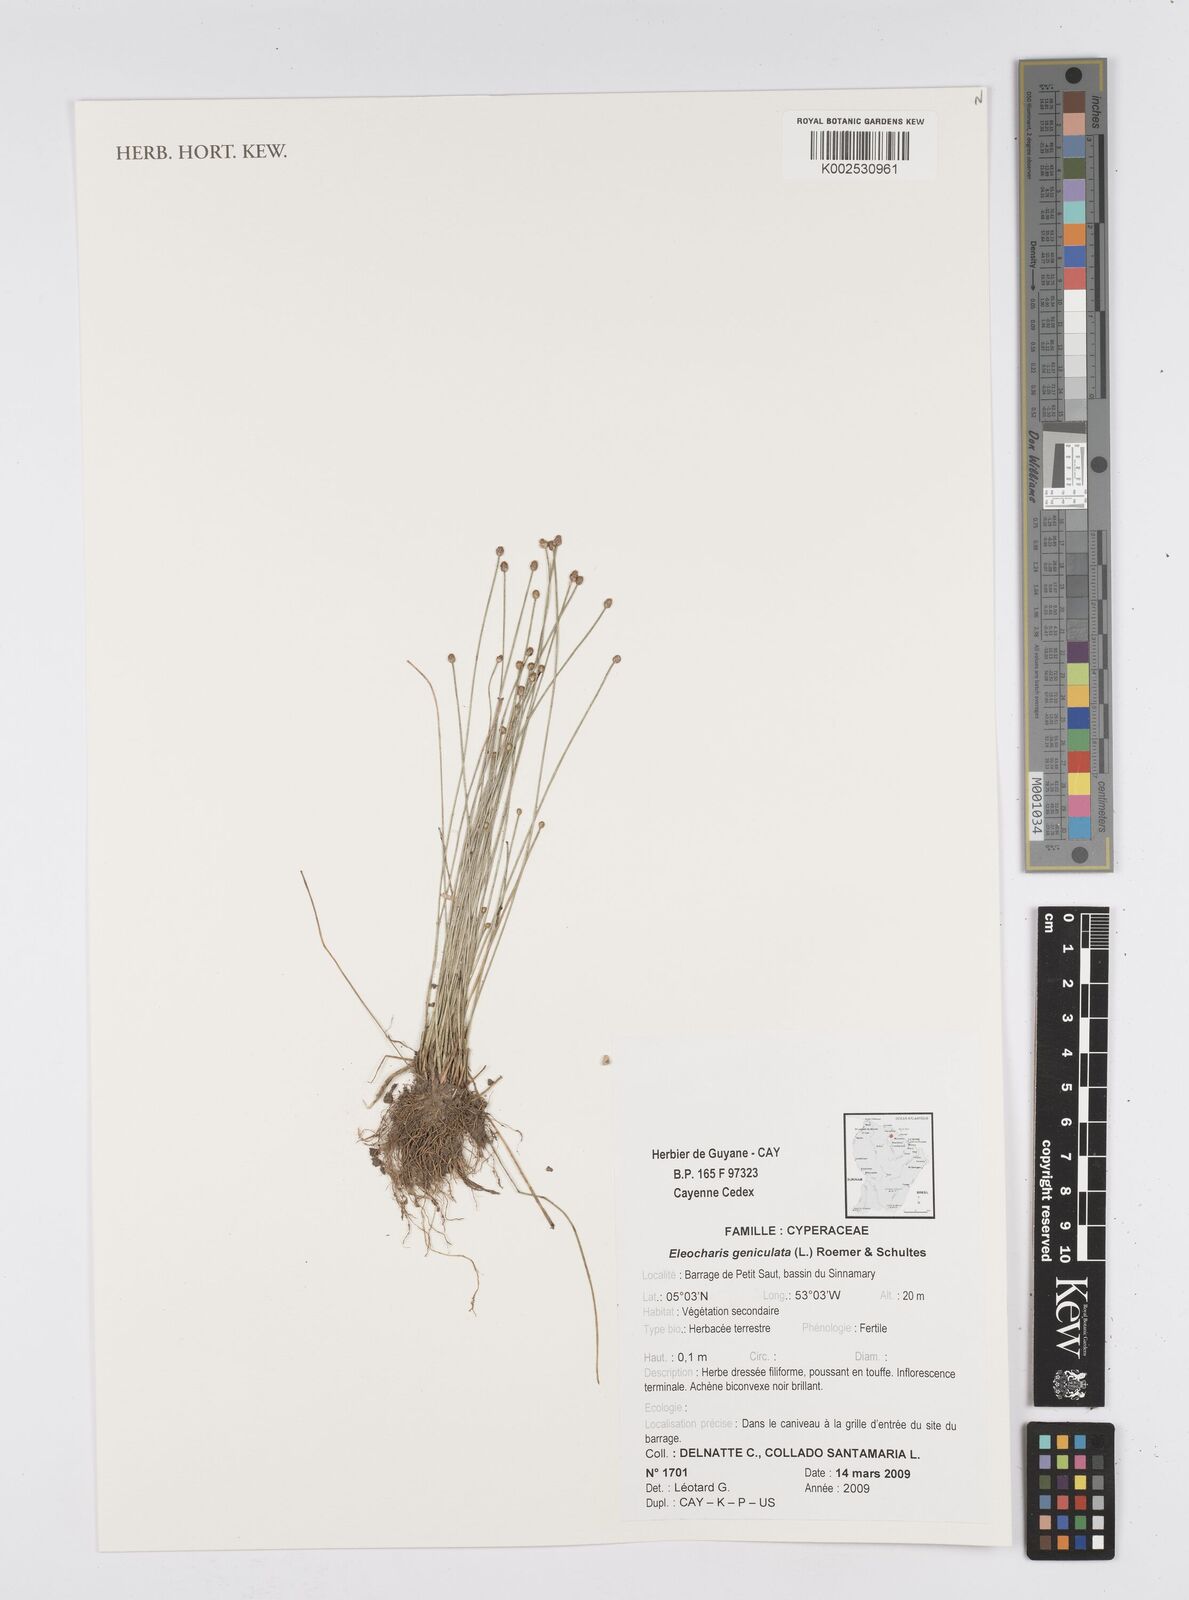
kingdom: Plantae
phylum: Tracheophyta
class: Liliopsida
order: Poales
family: Cyperaceae
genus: Eleocharis
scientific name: Eleocharis geniculata
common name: Canada spikesedge
